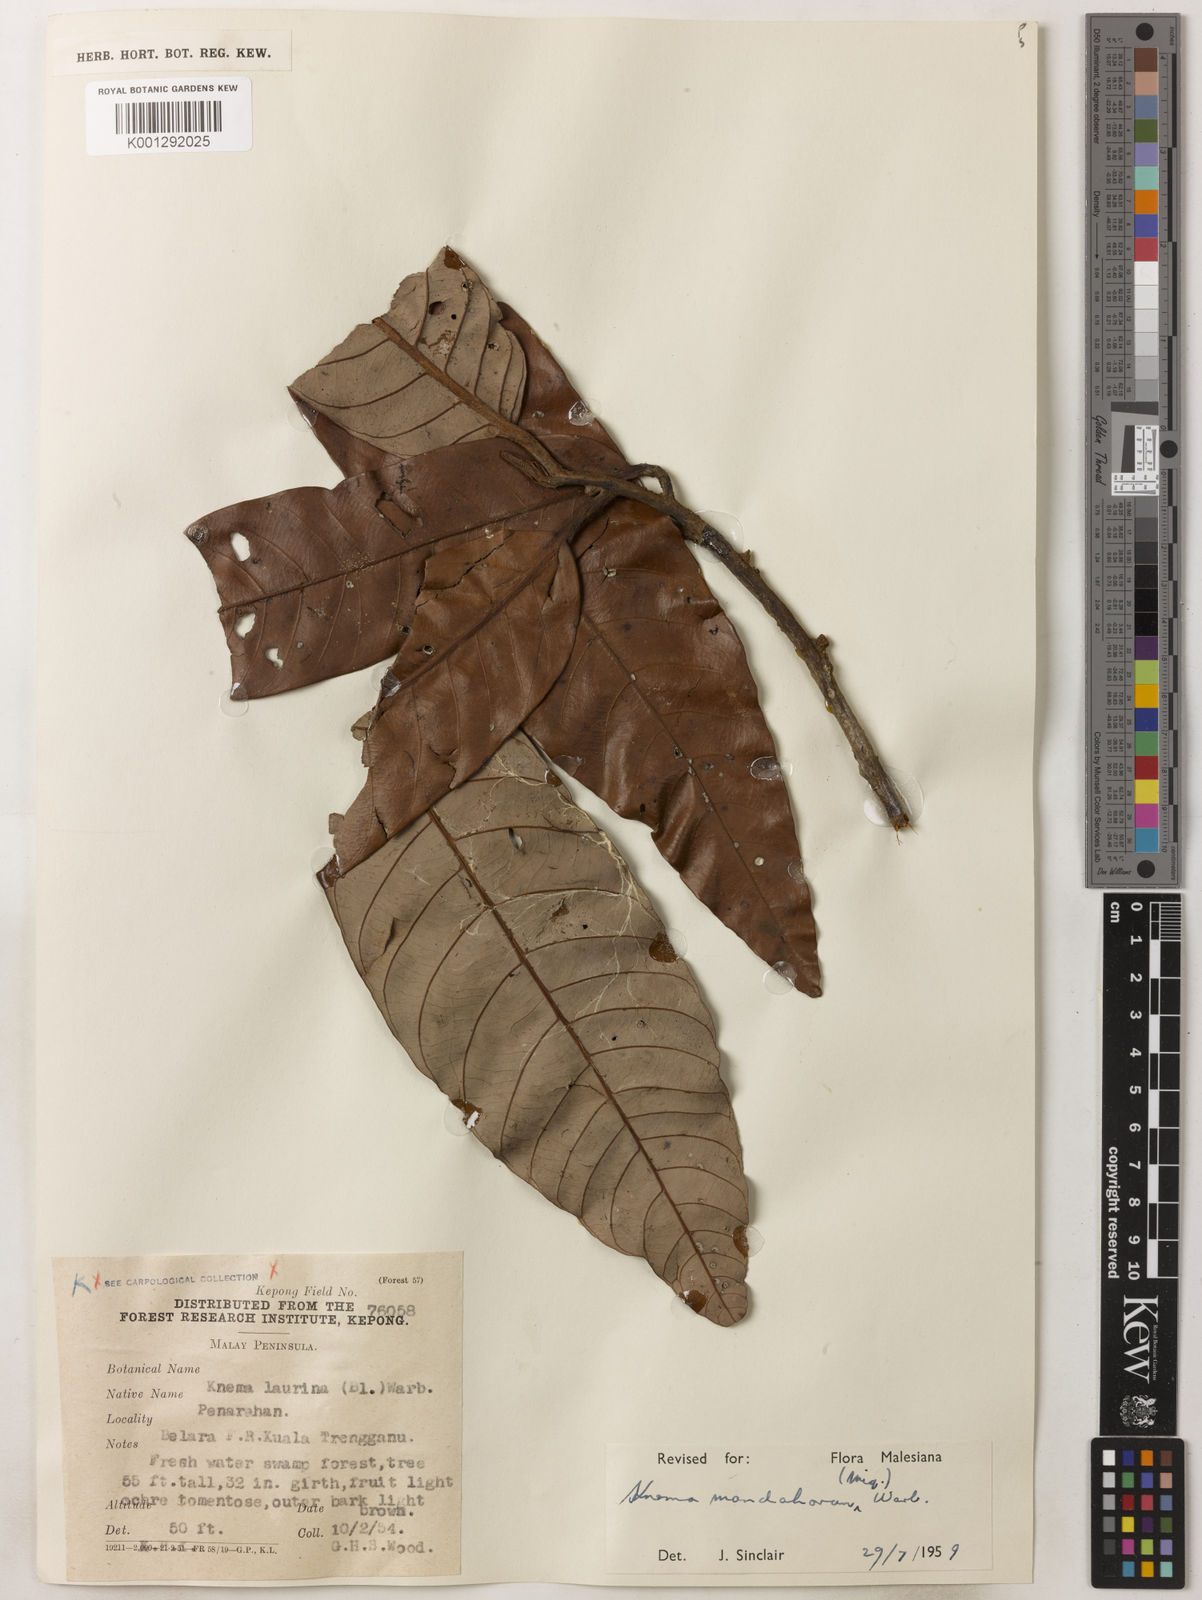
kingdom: Plantae
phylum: Tracheophyta
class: Magnoliopsida
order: Magnoliales
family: Myristicaceae
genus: Knema
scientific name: Knema mandaharan
